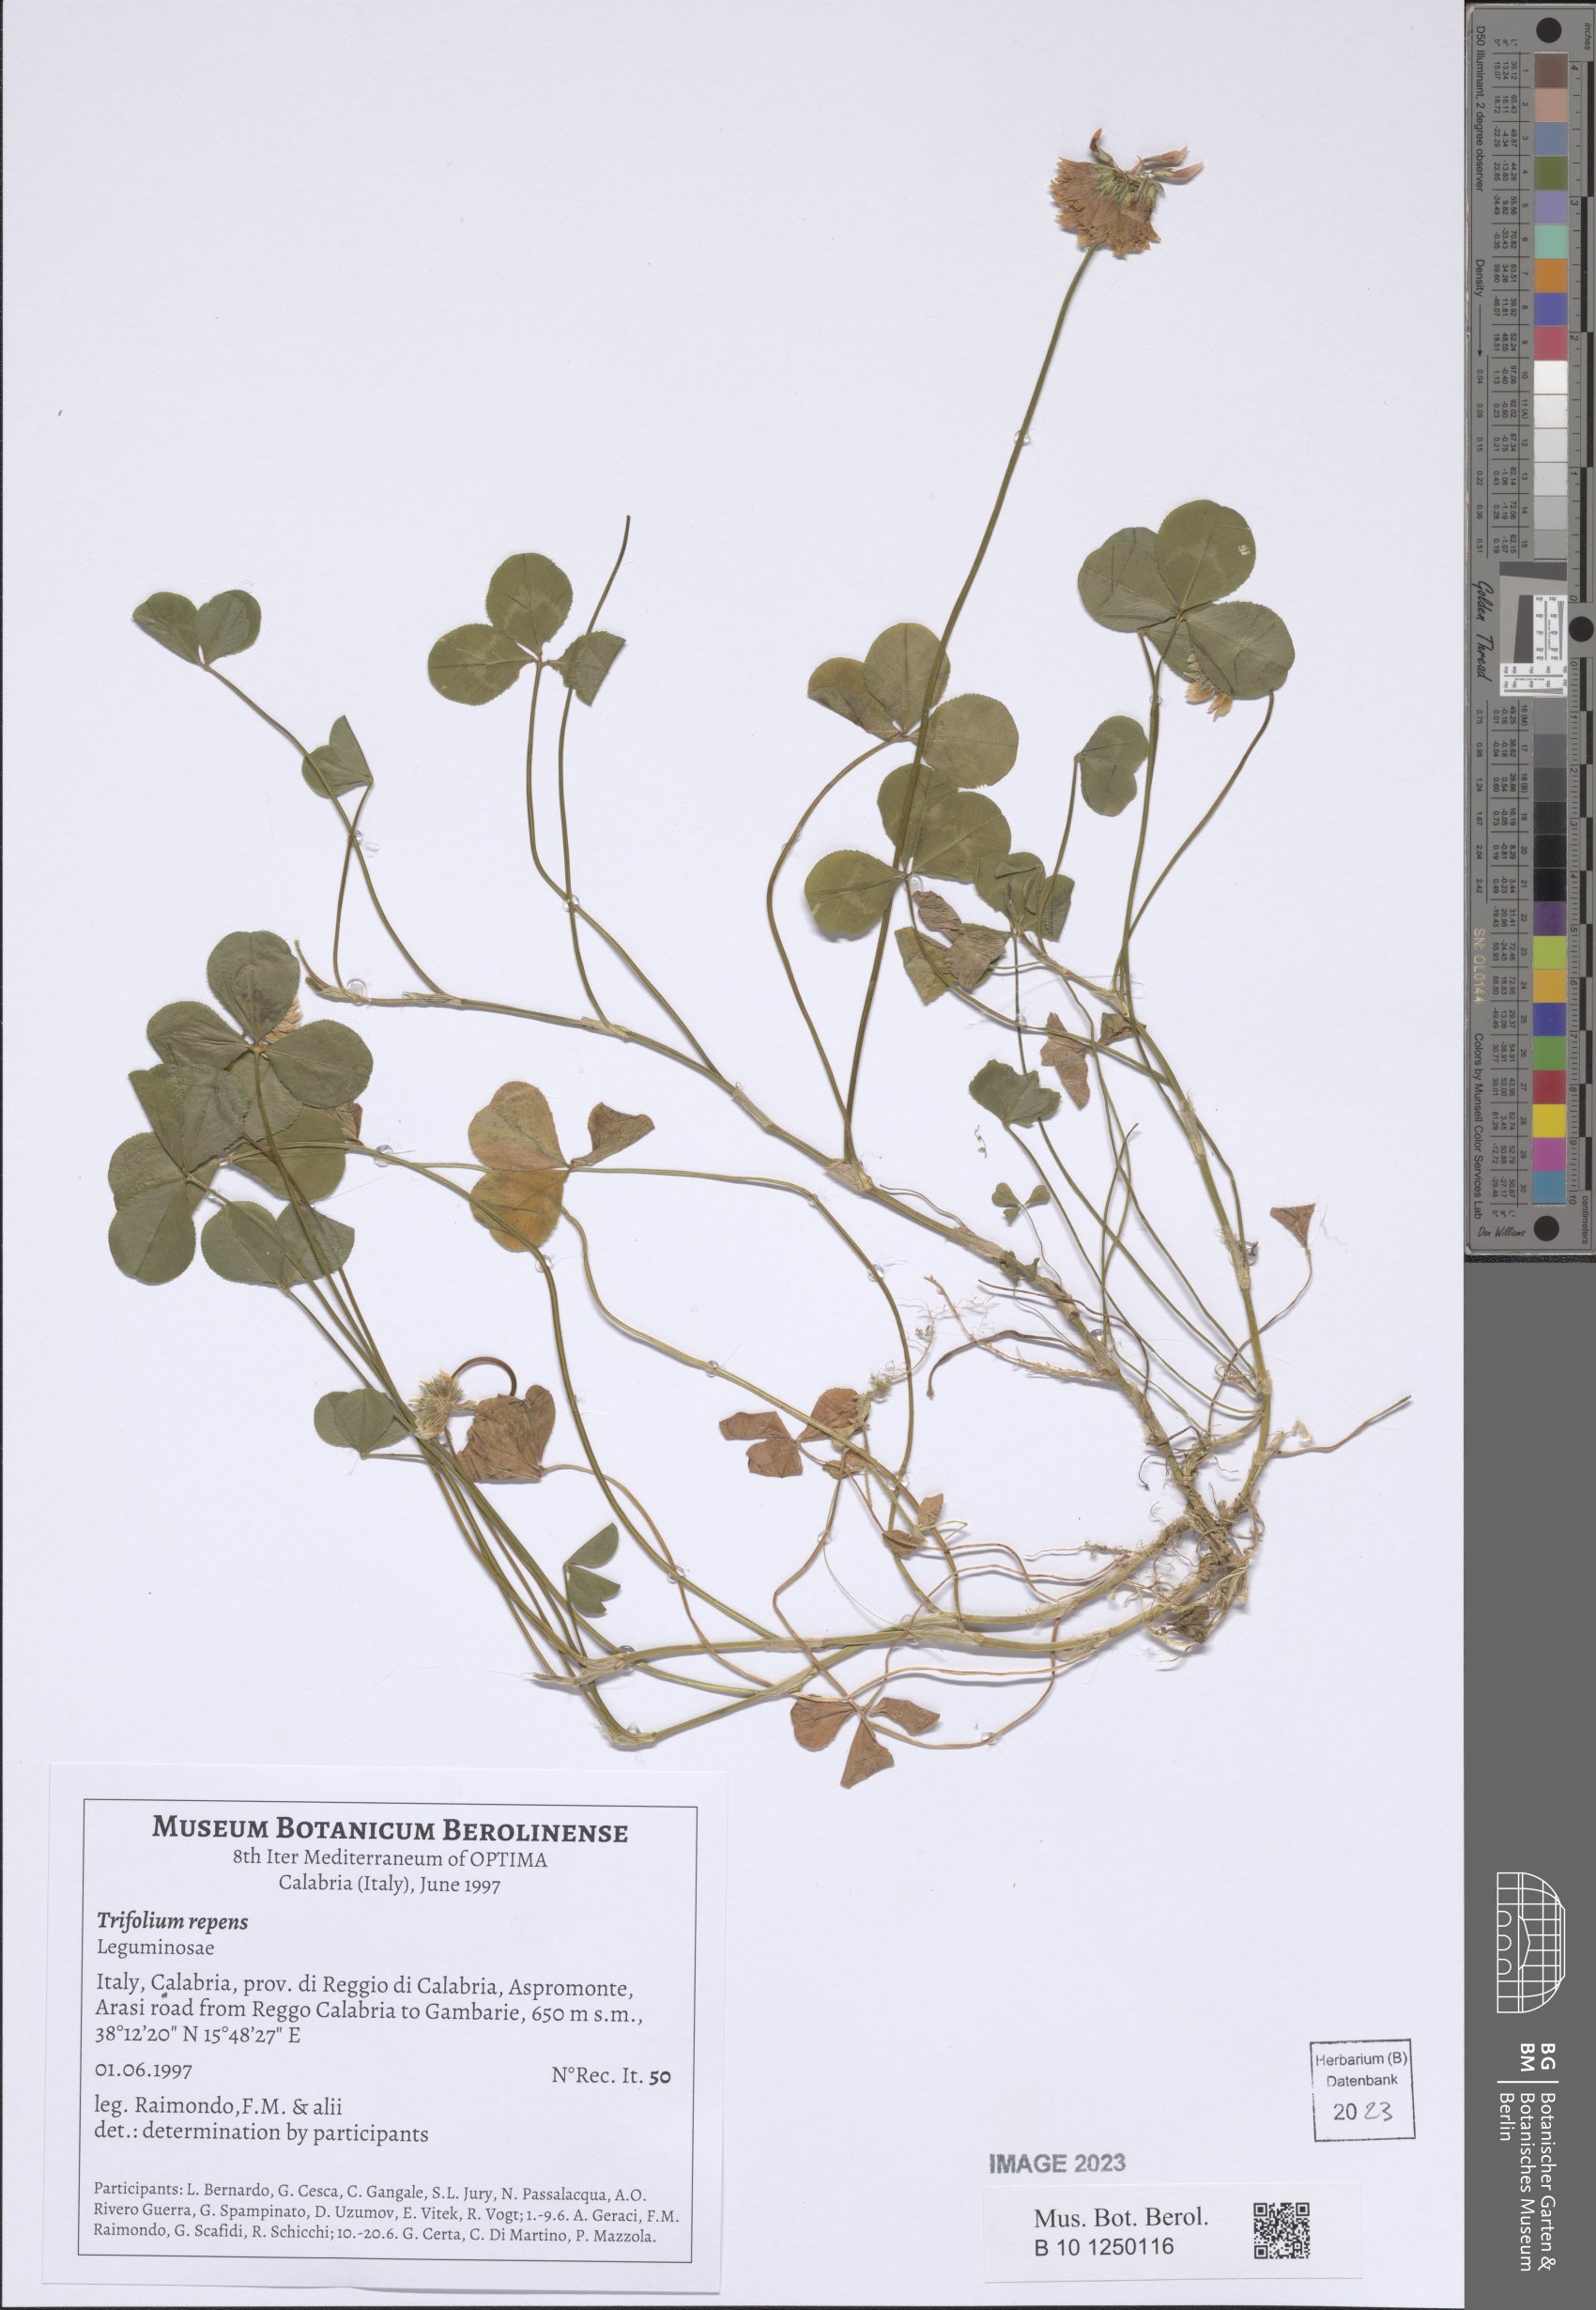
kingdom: Plantae
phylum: Tracheophyta
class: Magnoliopsida
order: Fabales
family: Fabaceae
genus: Trifolium
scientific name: Trifolium repens
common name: White clover
